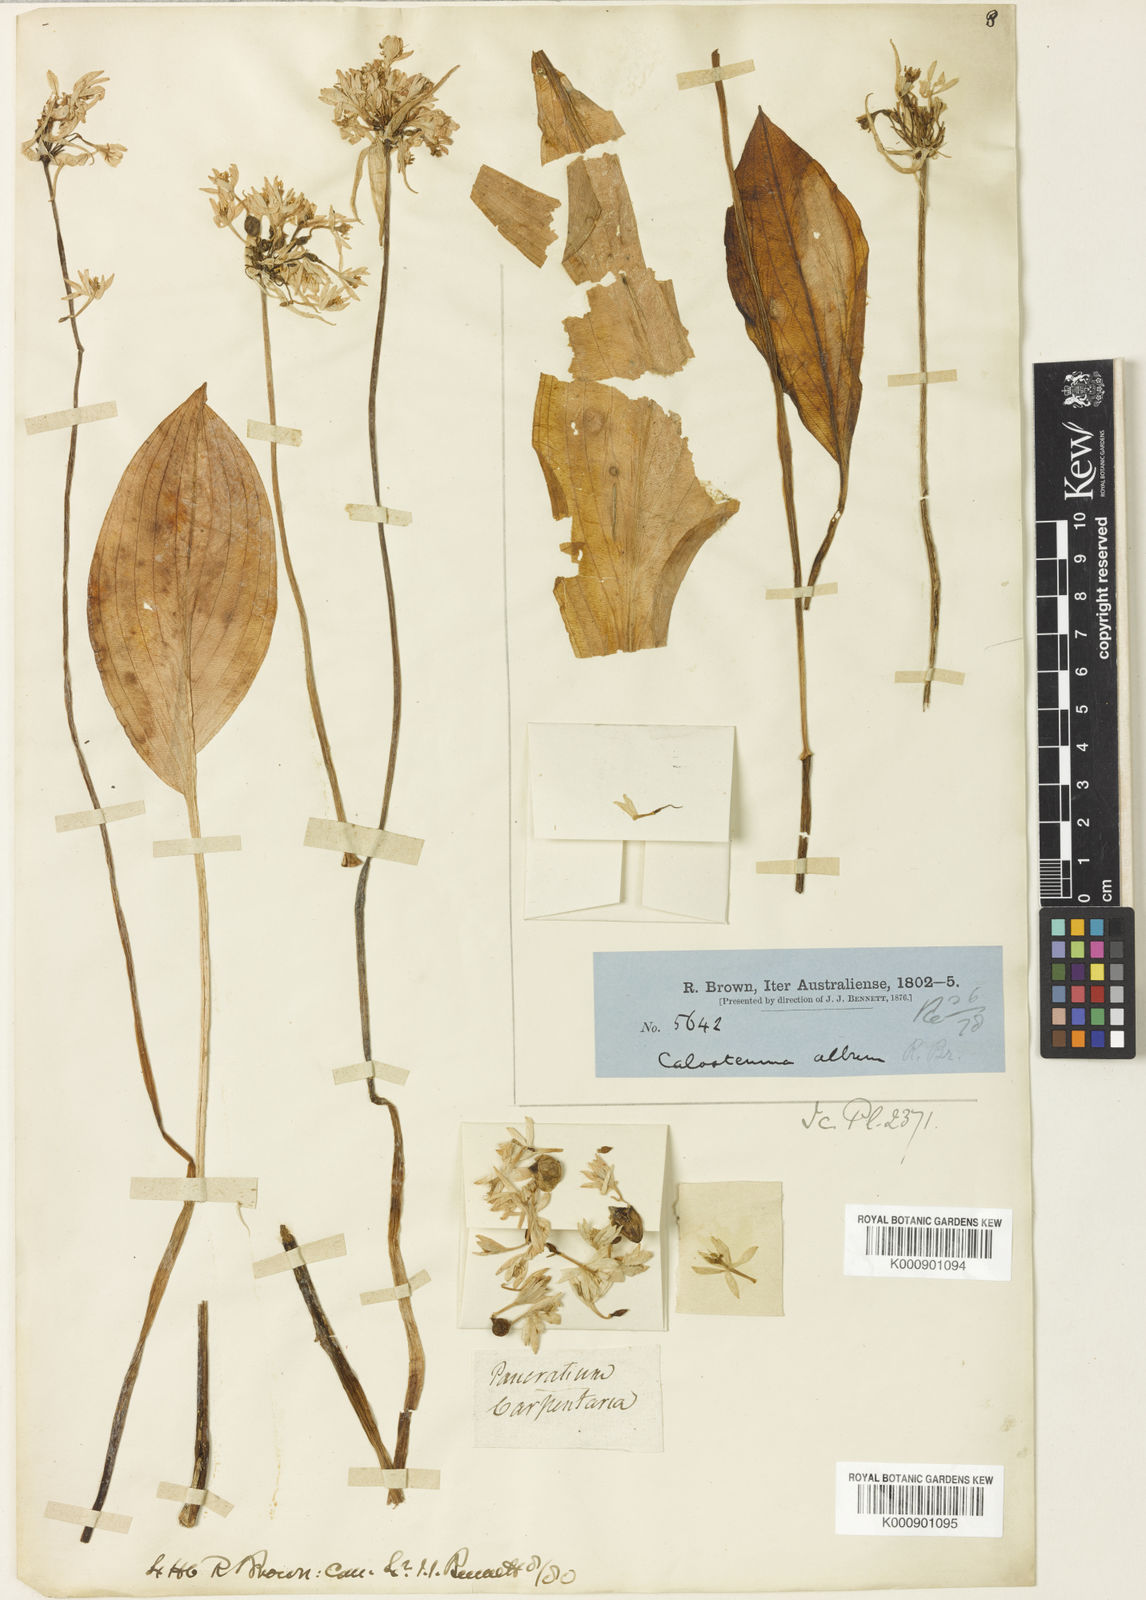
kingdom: Plantae
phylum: Tracheophyta
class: Liliopsida
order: Asparagales
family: Amaryllidaceae
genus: Proiphys
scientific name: Proiphys alba
